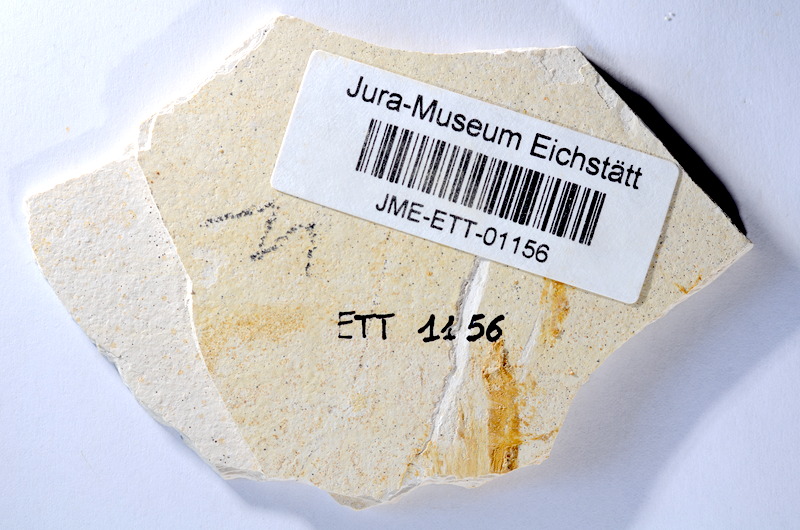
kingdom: Animalia
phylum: Chordata
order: Salmoniformes
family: Orthogonikleithridae
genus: Orthogonikleithrus
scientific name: Orthogonikleithrus hoelli
